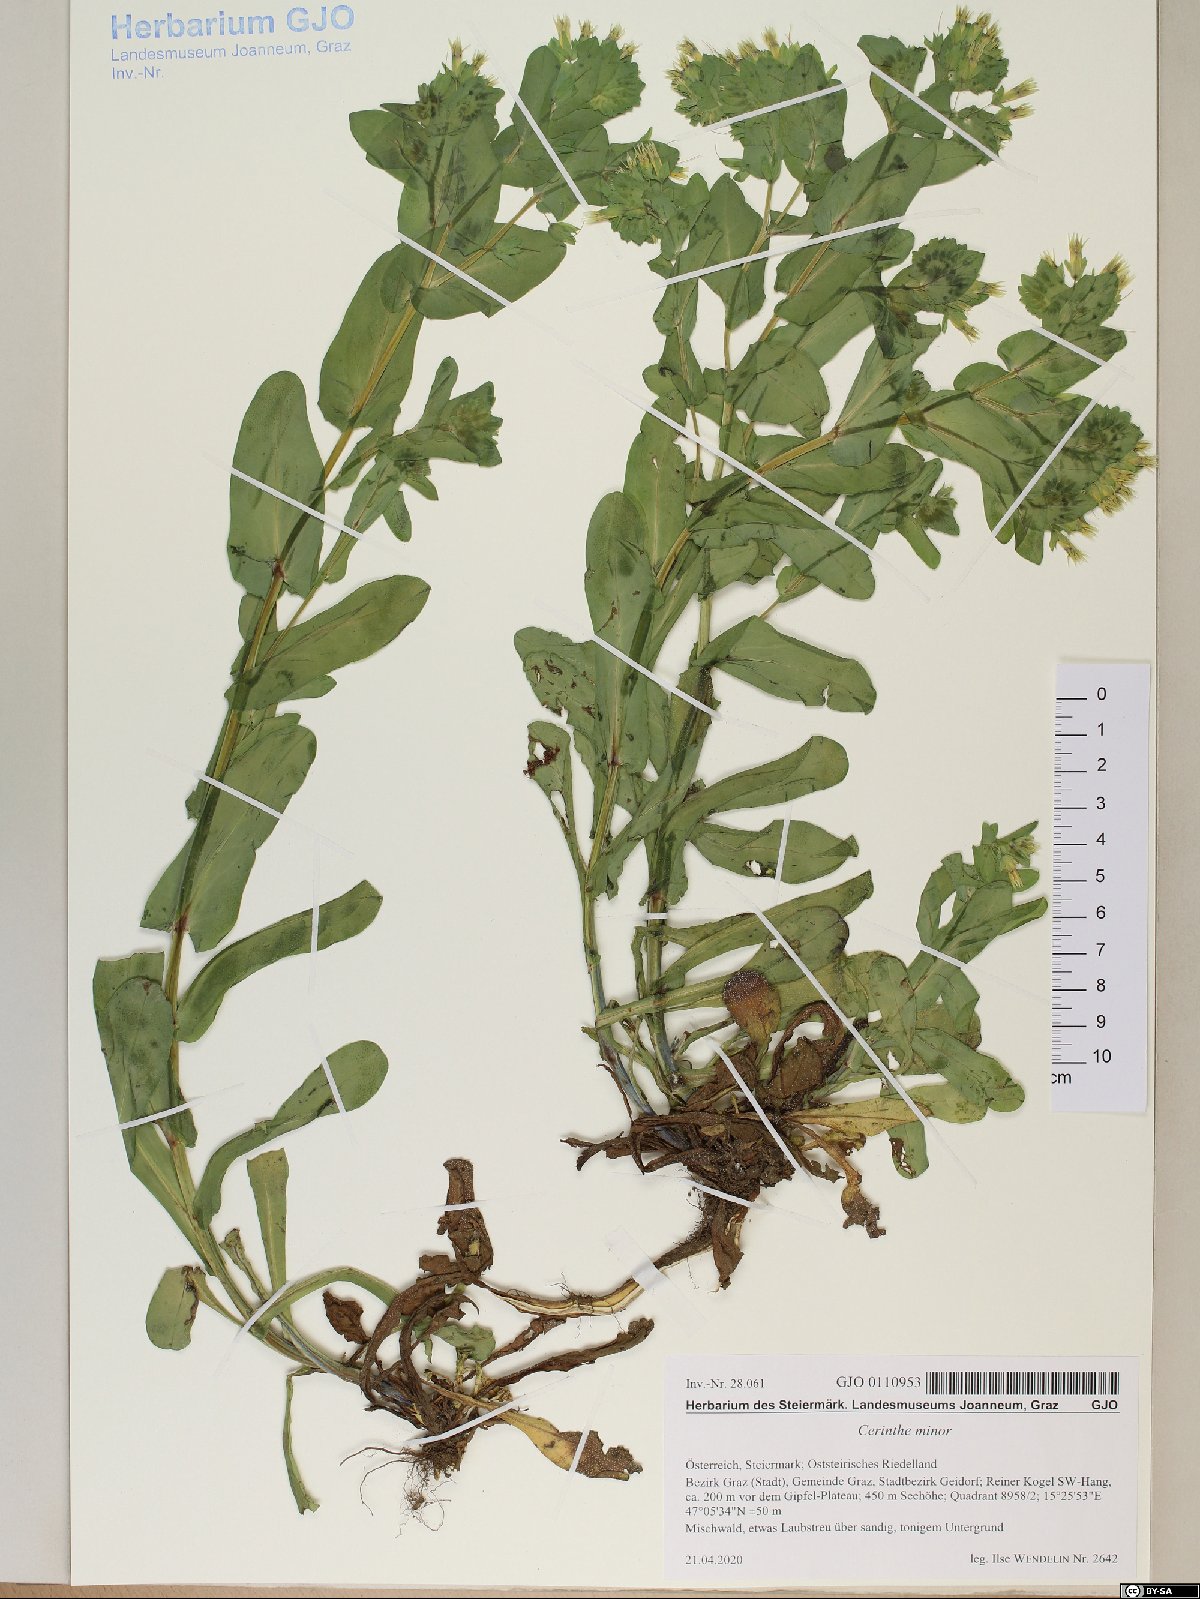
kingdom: Plantae
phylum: Tracheophyta
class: Magnoliopsida
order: Boraginales
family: Boraginaceae
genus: Cerinthe
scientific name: Cerinthe minor
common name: Lesser honeywort
